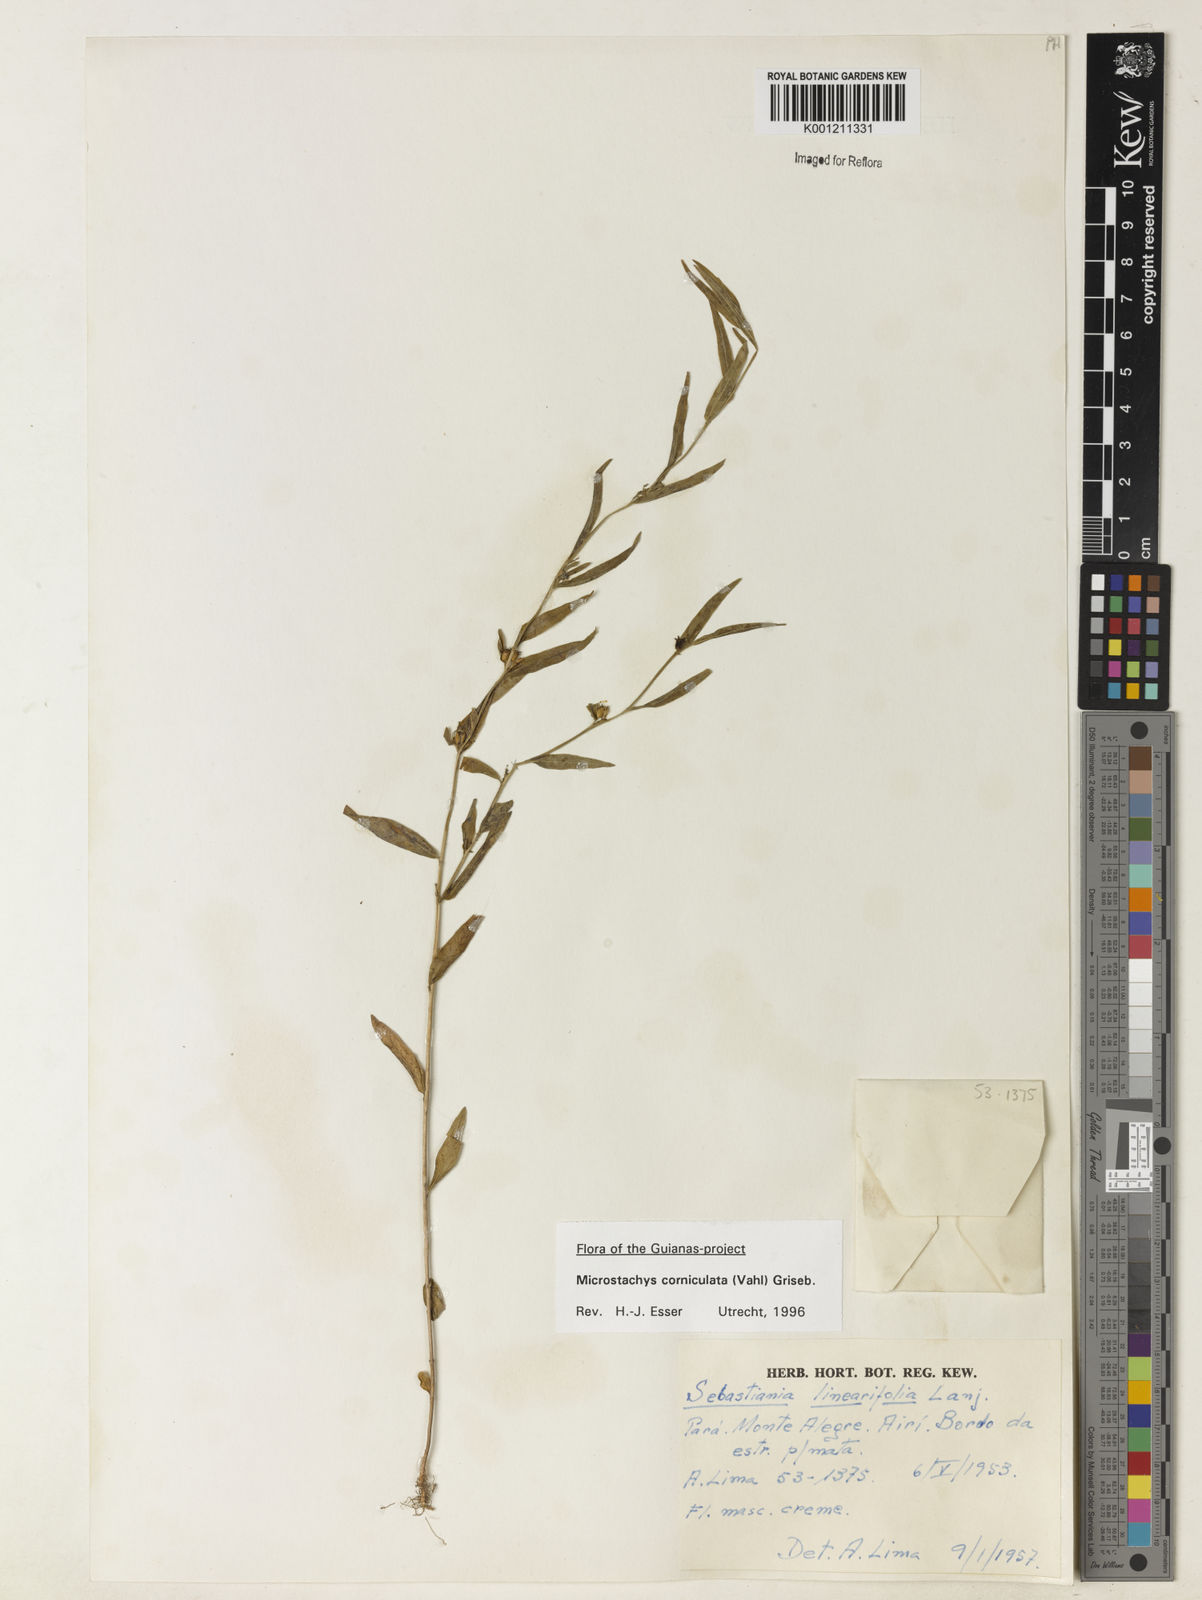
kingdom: Plantae
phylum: Tracheophyta
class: Magnoliopsida
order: Malpighiales
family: Euphorbiaceae
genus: Microstachys
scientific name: Microstachys corniculata
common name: Hato tejas
